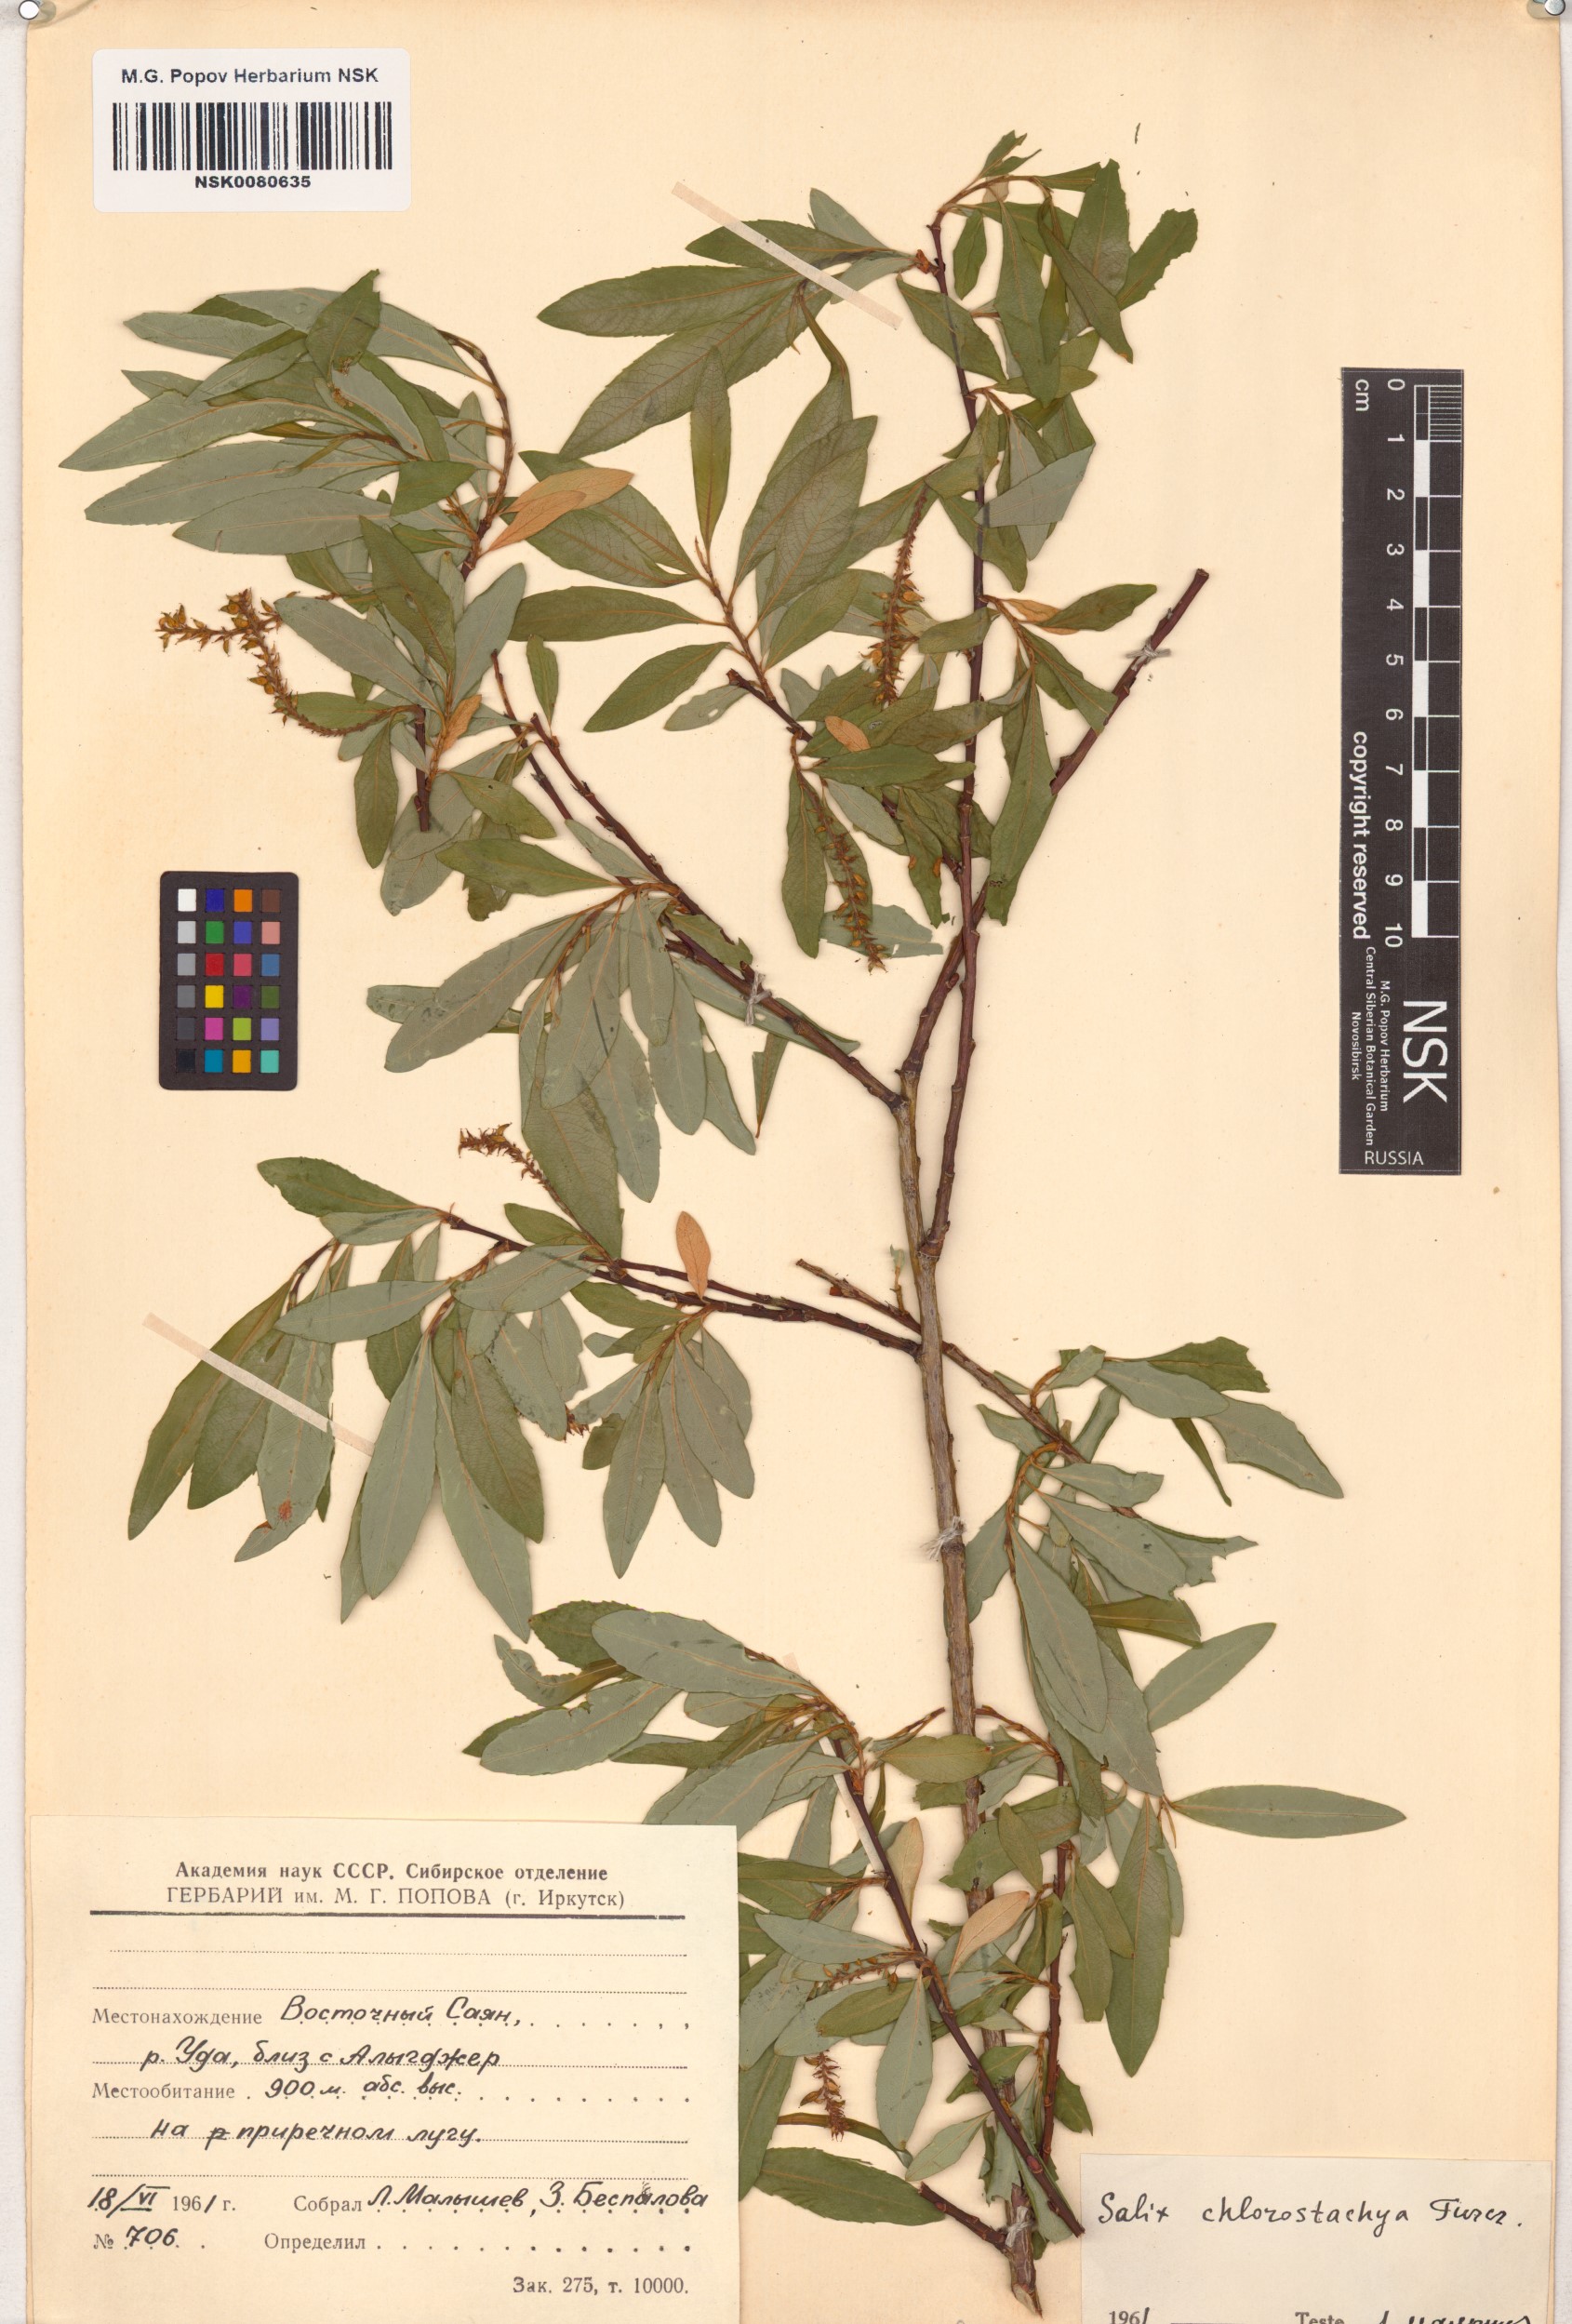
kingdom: Plantae
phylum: Tracheophyta
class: Magnoliopsida
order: Malpighiales
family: Salicaceae
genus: Salix
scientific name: Salix rhamnifolia
